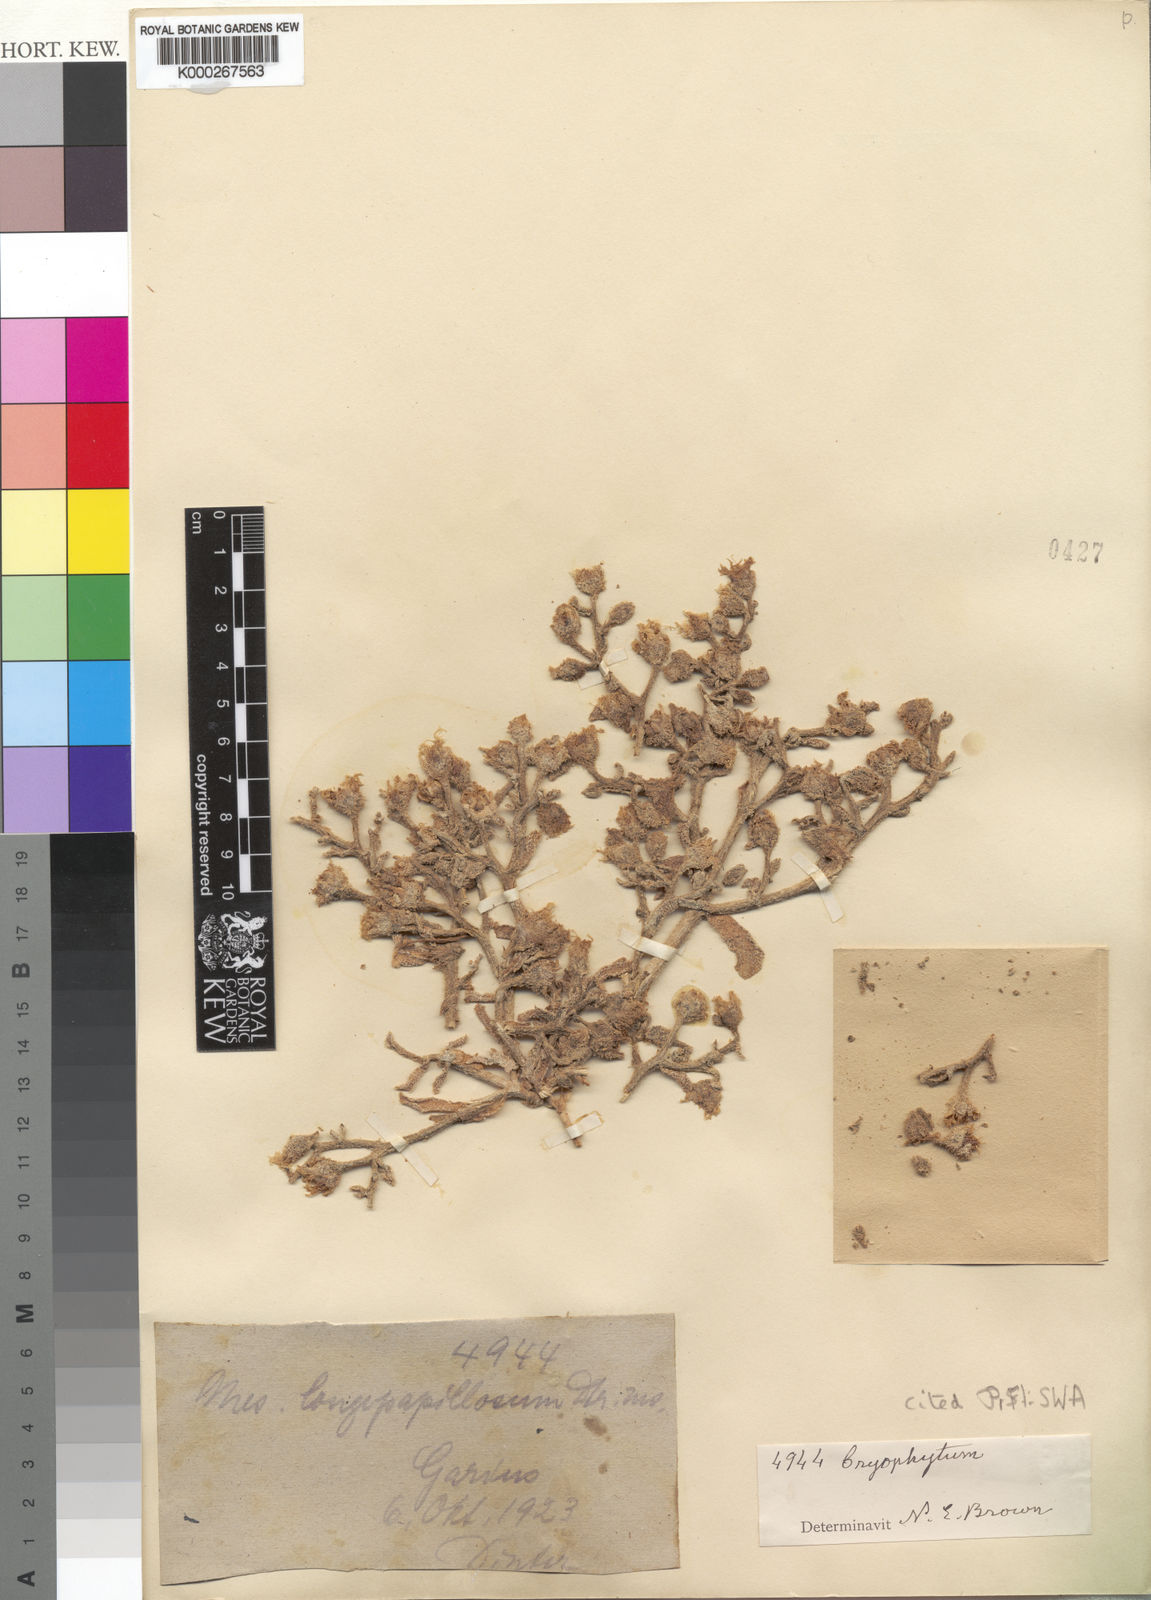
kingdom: Plantae
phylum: Tracheophyta
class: Magnoliopsida
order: Caryophyllales
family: Aizoaceae
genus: Mesembryanthemum
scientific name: Mesembryanthemum inachabense
